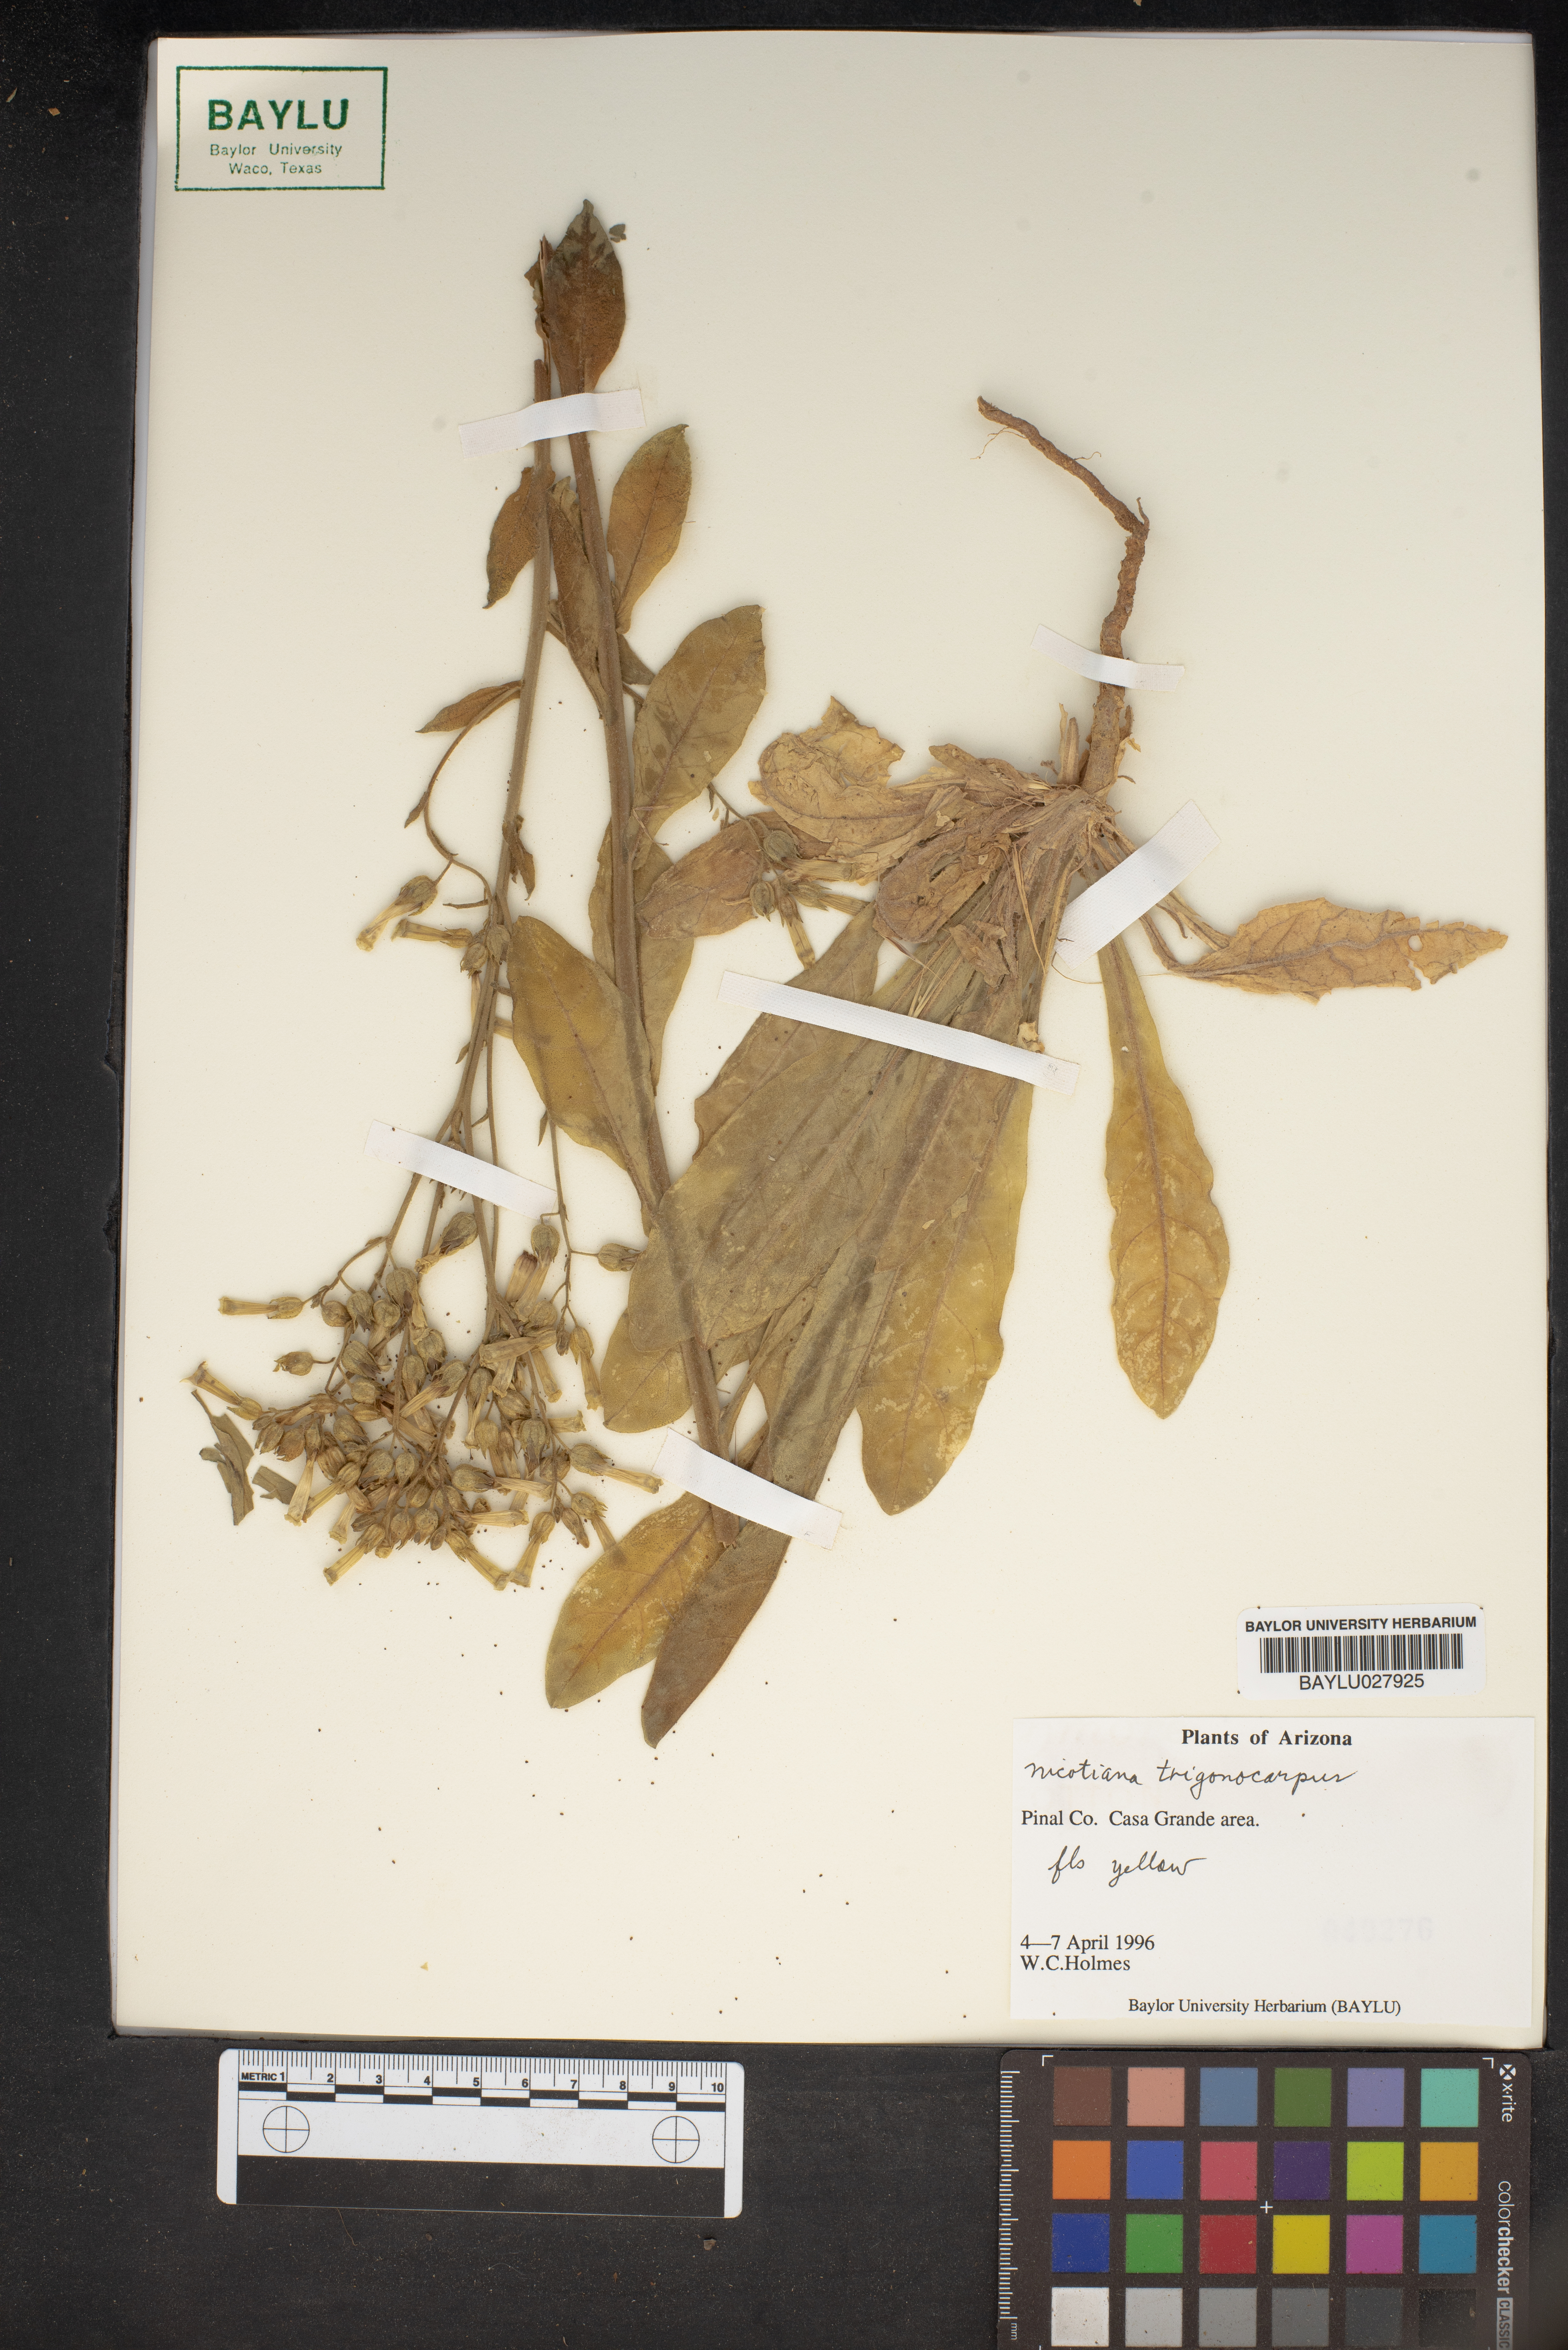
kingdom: Plantae
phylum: Tracheophyta
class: Magnoliopsida
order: Solanales
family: Solanaceae
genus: Nicotiana
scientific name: Nicotiana
